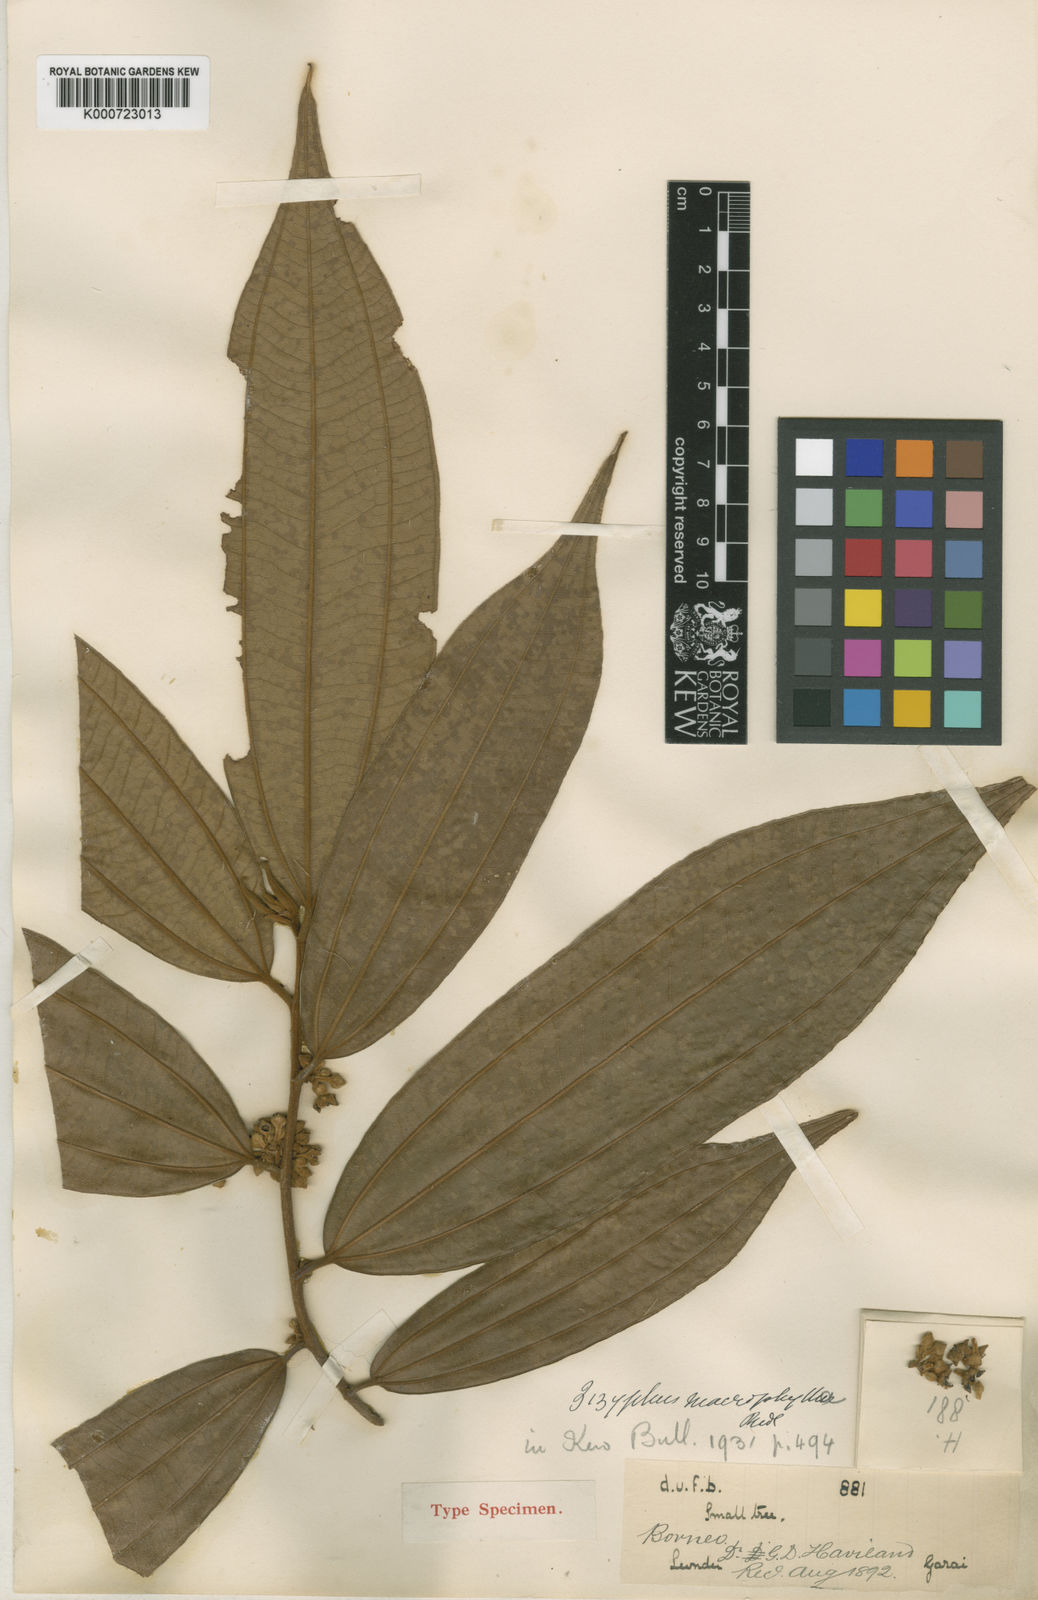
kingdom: Plantae
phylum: Tracheophyta
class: Magnoliopsida
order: Rosales
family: Rhamnaceae
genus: Ziziphus
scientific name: Ziziphus affinis
